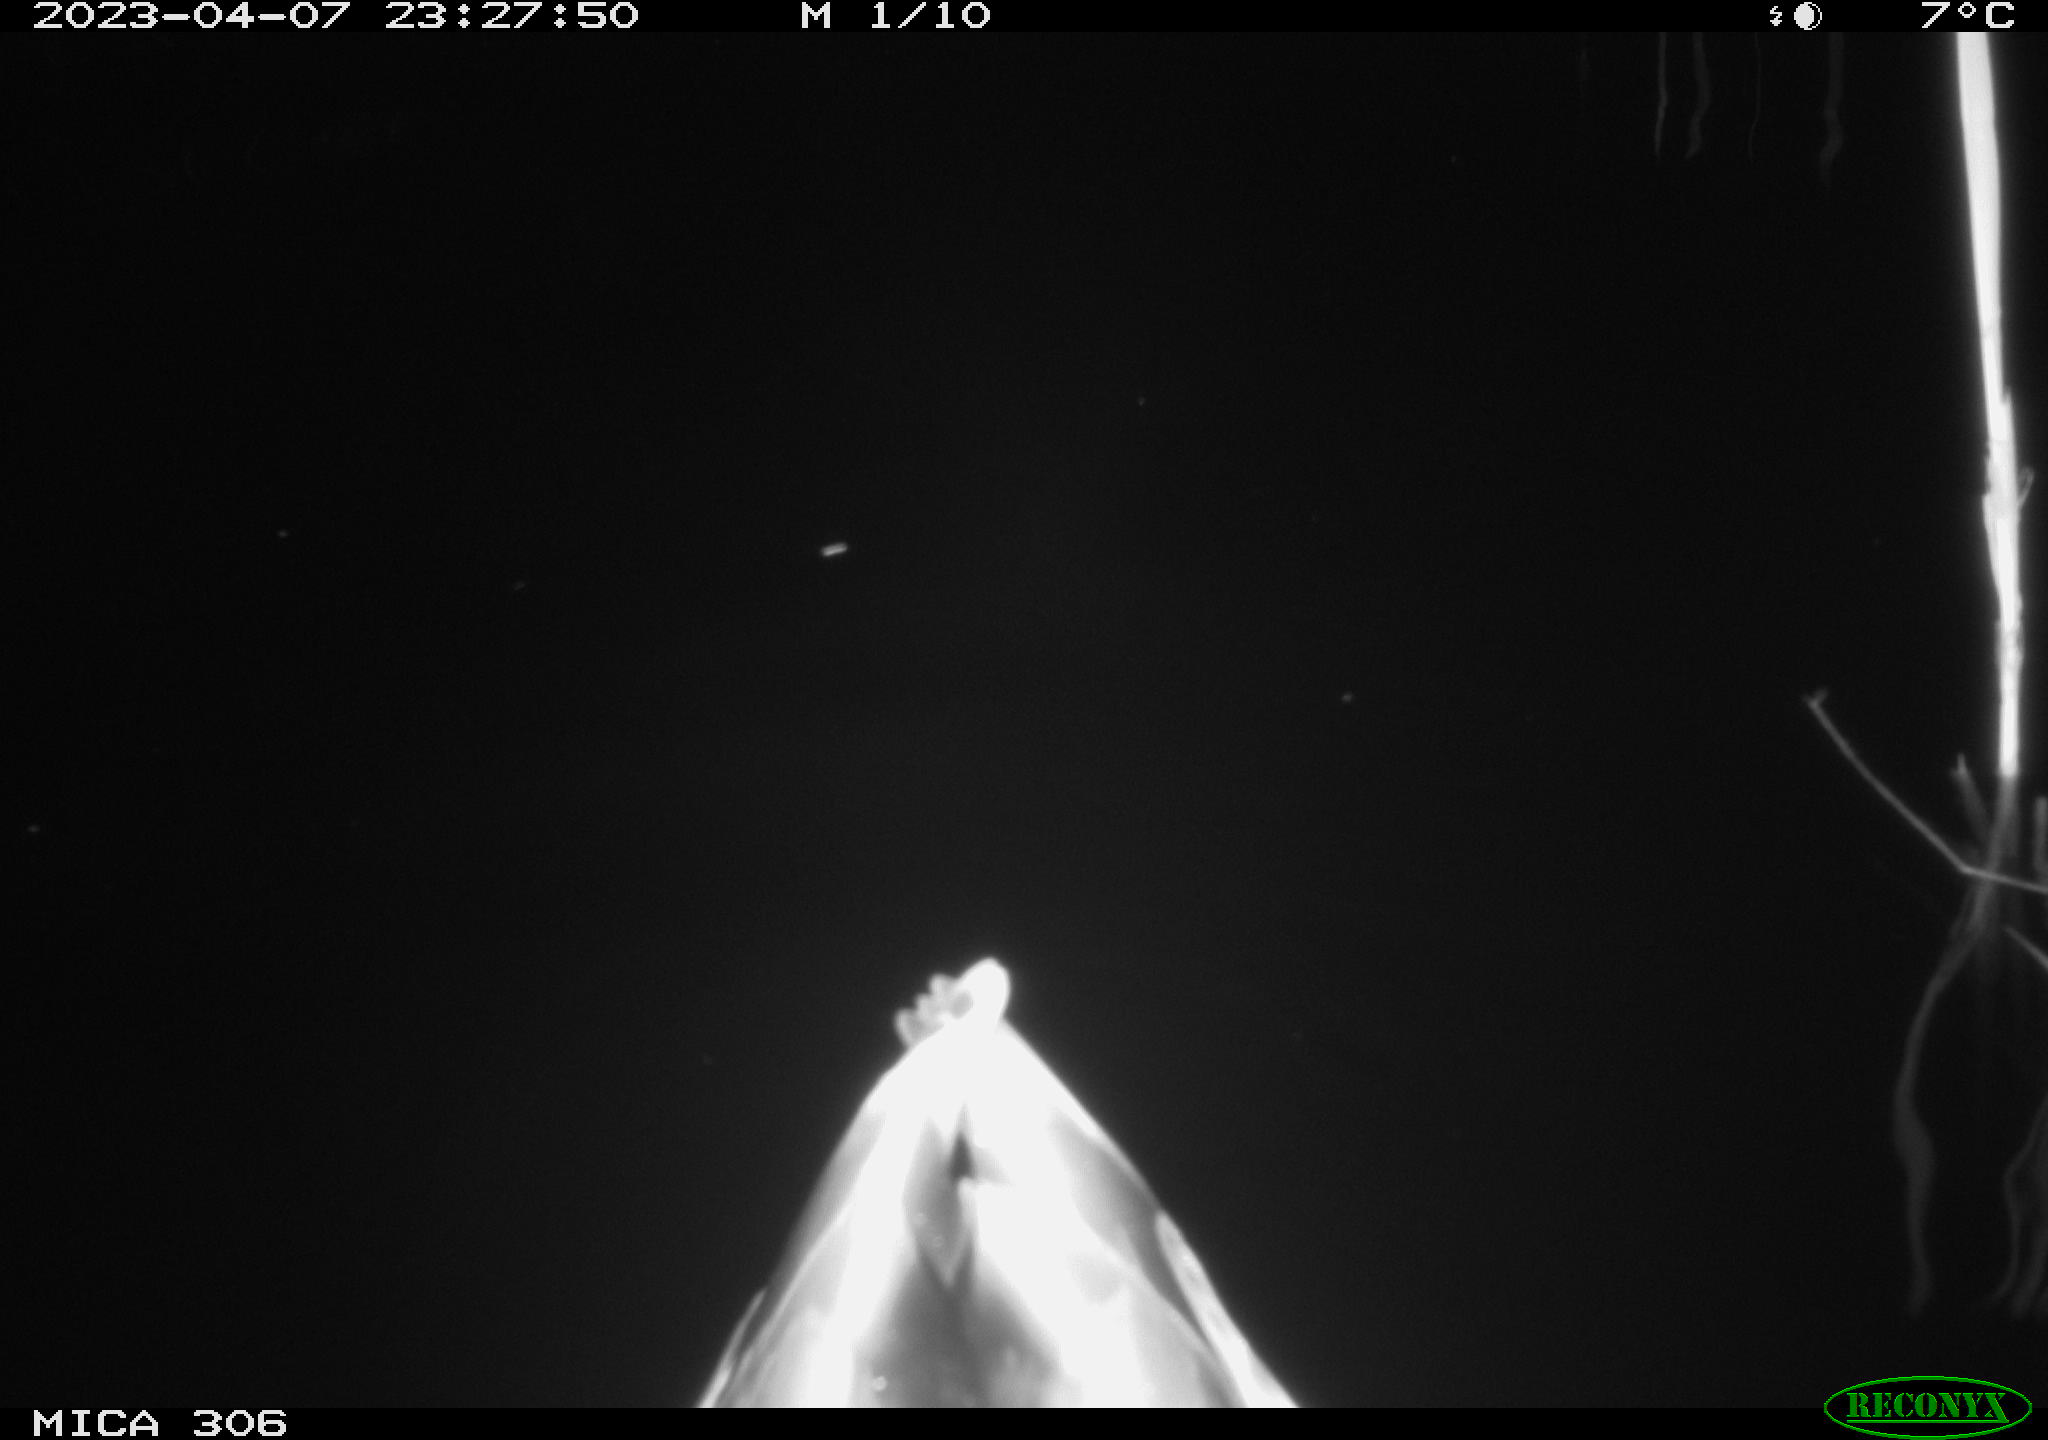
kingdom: Animalia
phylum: Chordata
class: Aves
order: Anseriformes
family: Anatidae
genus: Anas
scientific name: Anas
